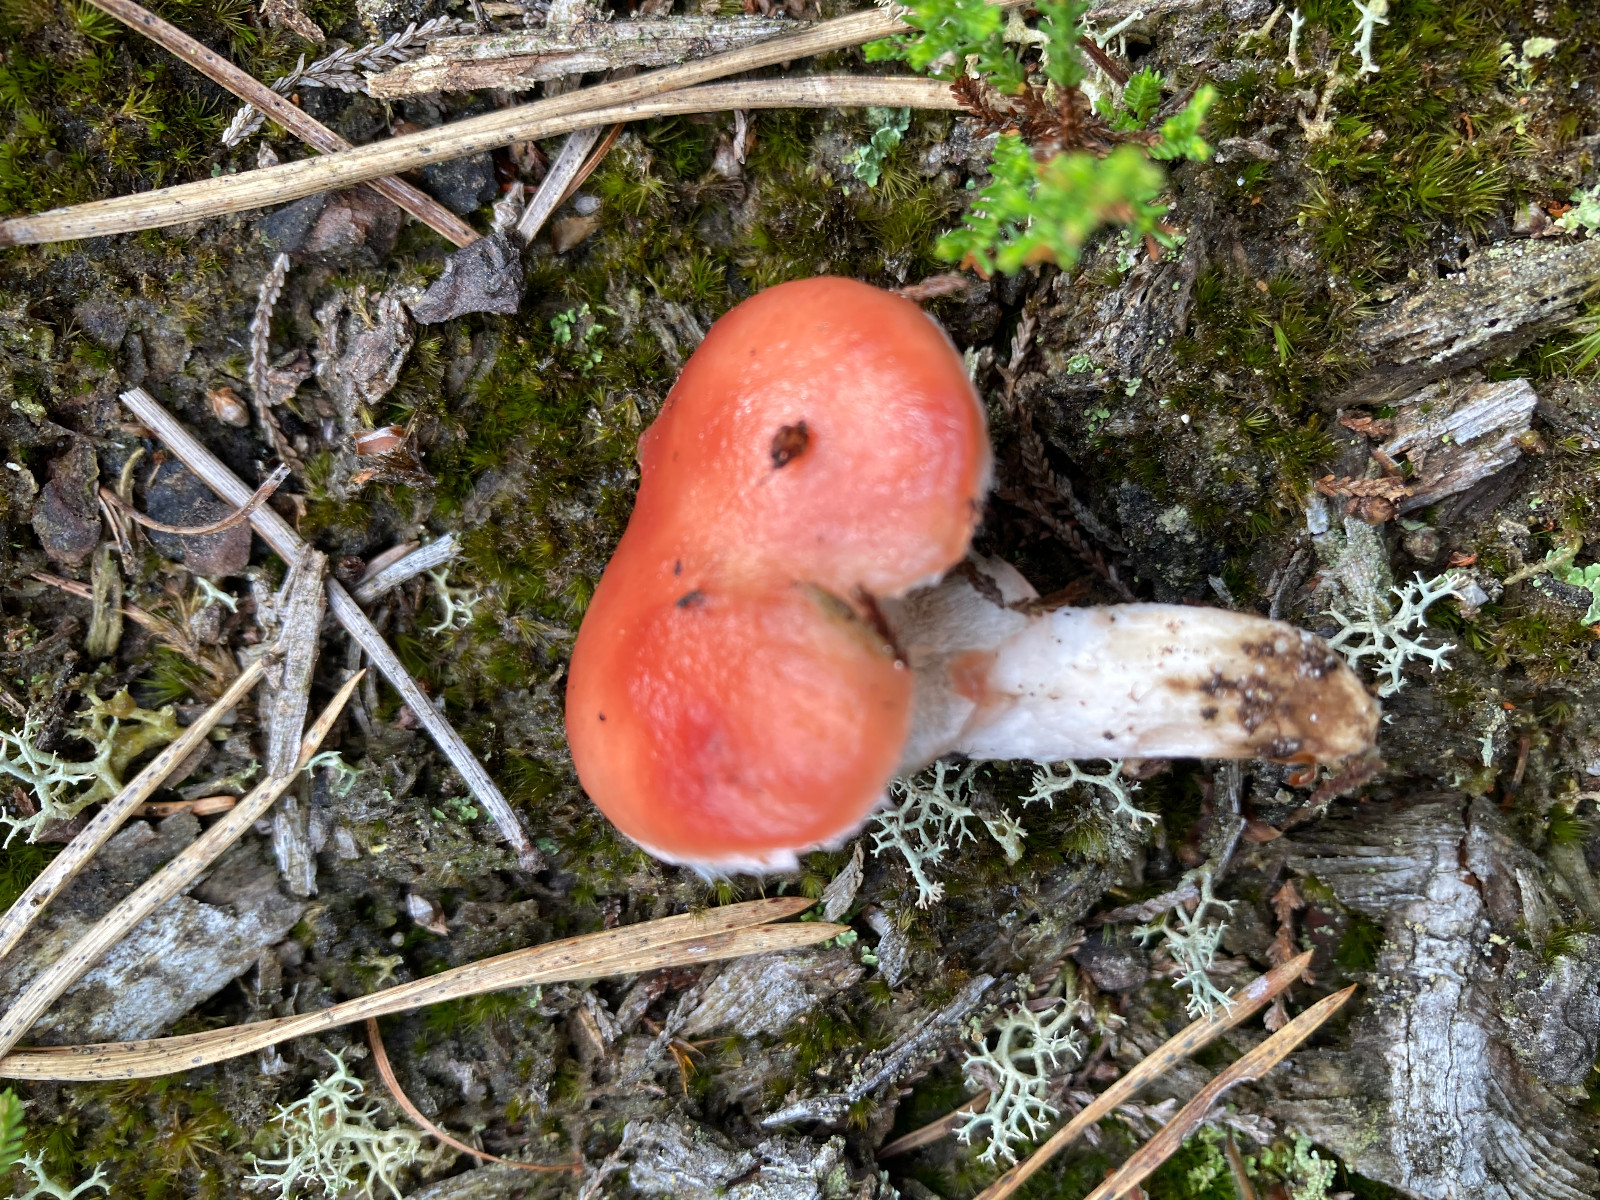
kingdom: Fungi
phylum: Basidiomycota
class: Agaricomycetes
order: Boletales
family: Gomphidiaceae
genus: Gomphidius
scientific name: Gomphidius roseus
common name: rosenrød slimslør
